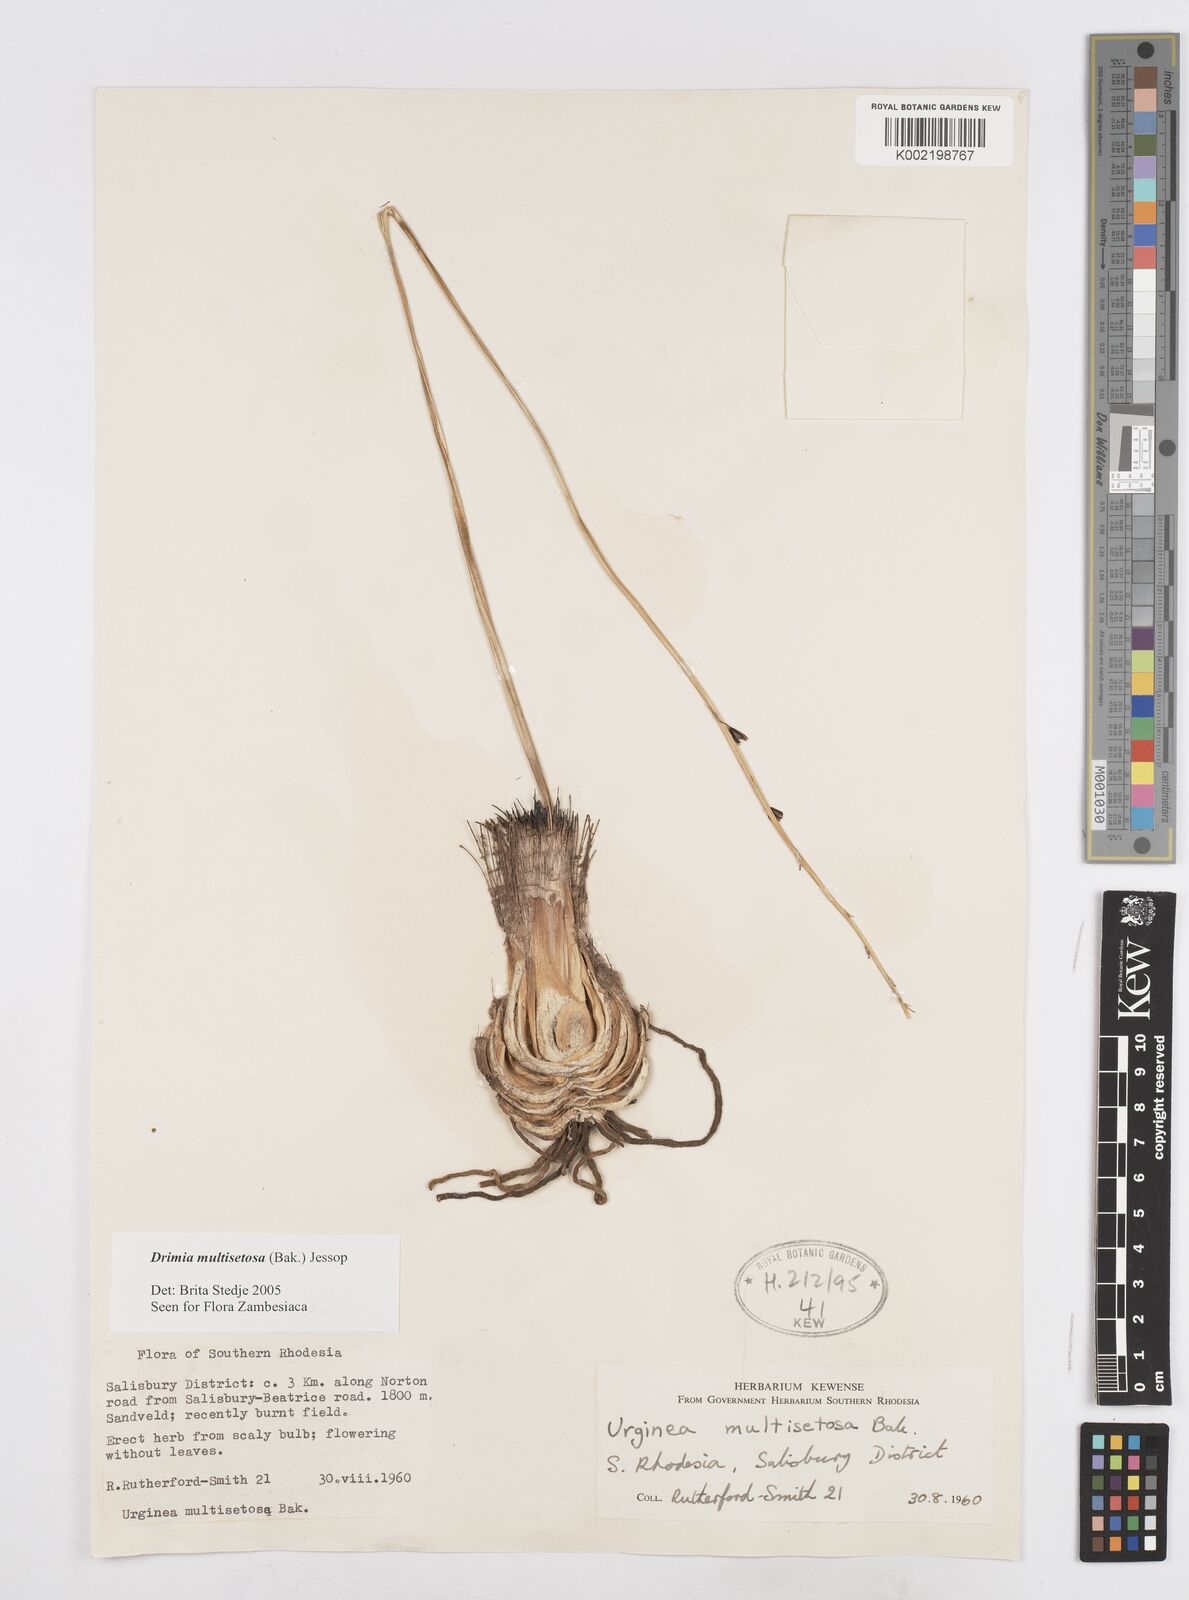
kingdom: Plantae
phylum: Tracheophyta
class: Liliopsida
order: Asparagales
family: Asparagaceae
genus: Drimia
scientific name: Drimia multisetosa
